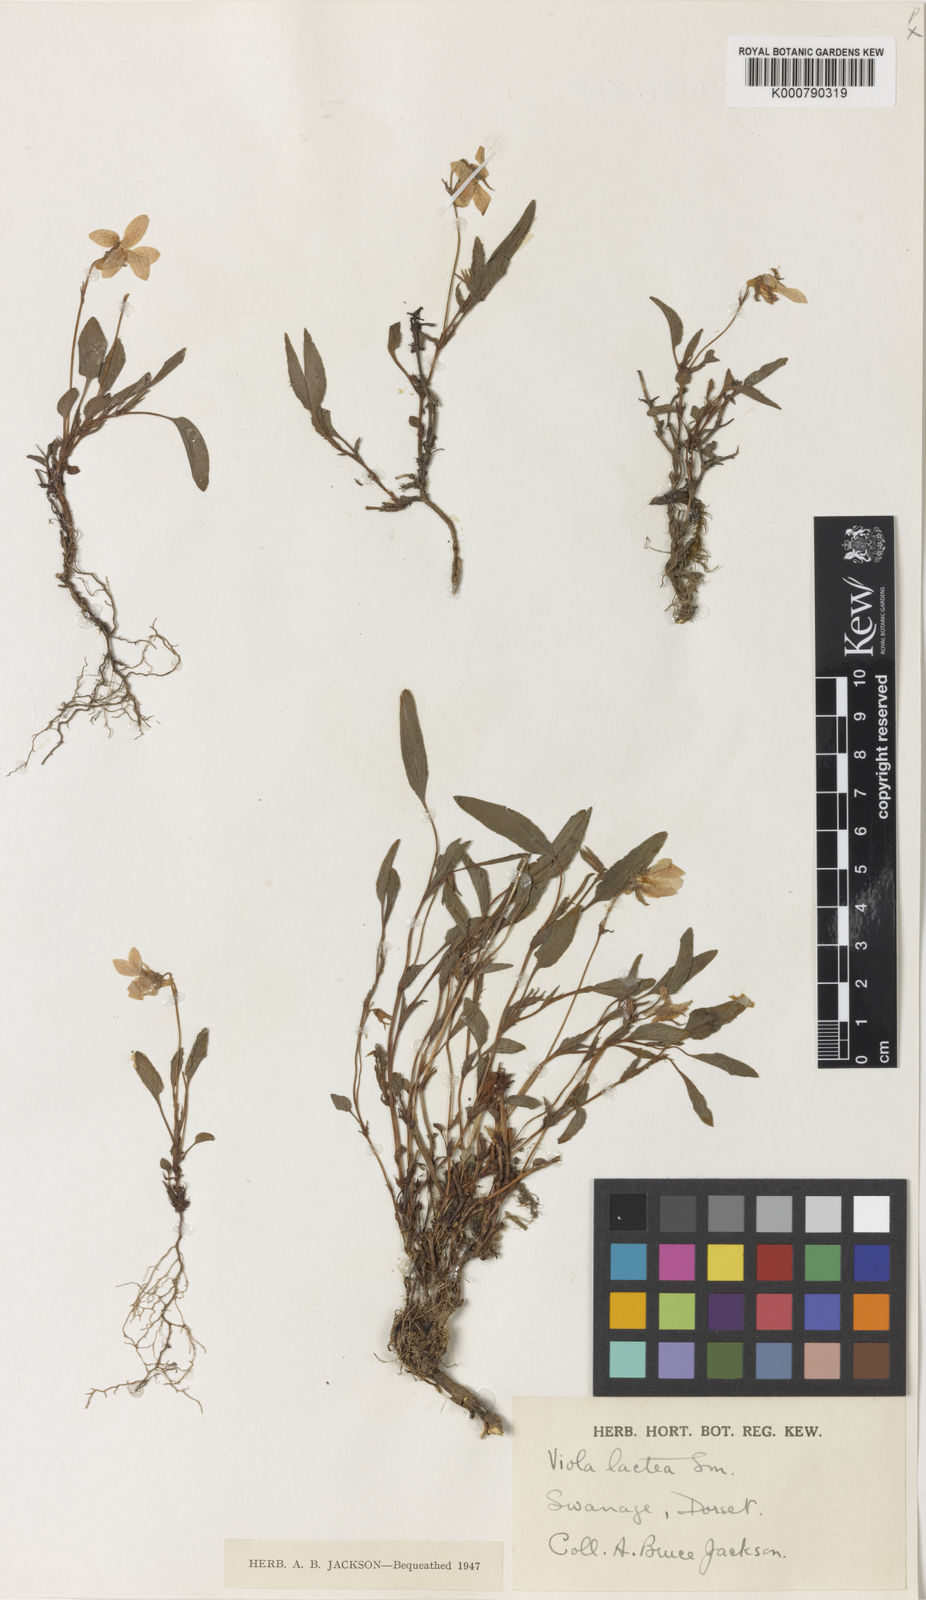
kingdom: Plantae
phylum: Tracheophyta
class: Magnoliopsida
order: Malpighiales
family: Violaceae
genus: Viola
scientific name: Viola lactea
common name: Pale dog-violet
